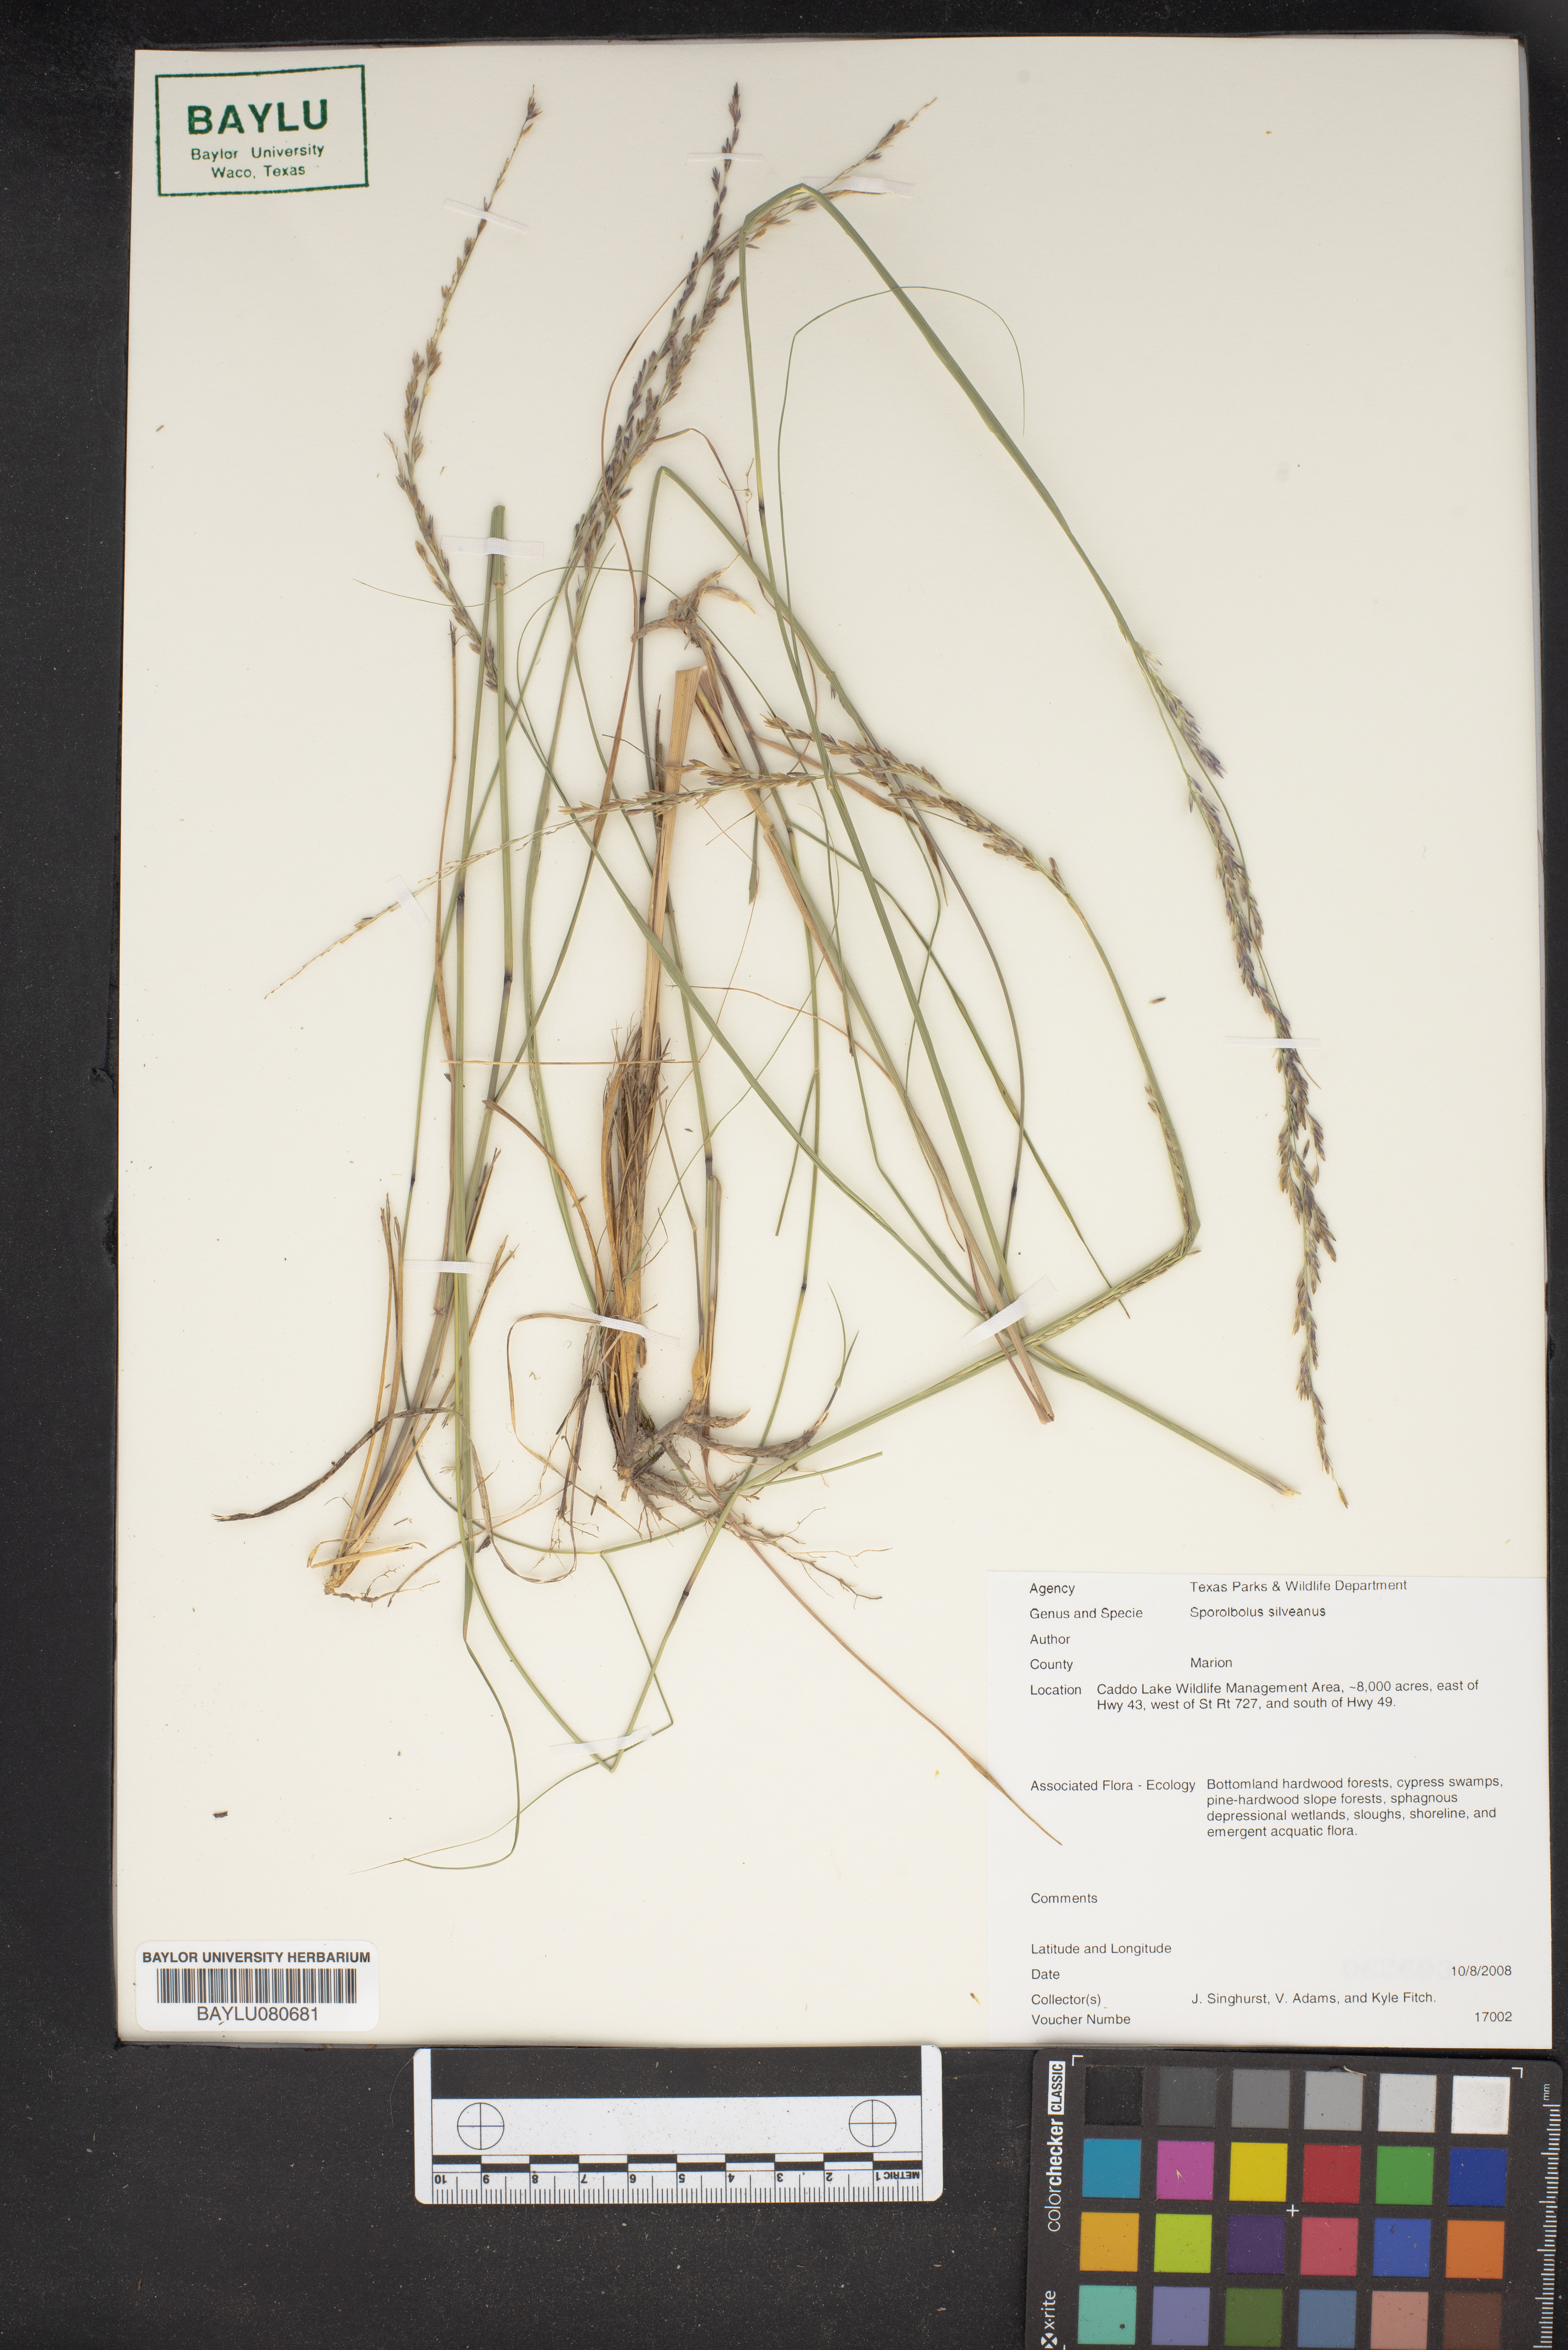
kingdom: Plantae
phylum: Tracheophyta
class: Liliopsida
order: Poales
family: Poaceae
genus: Sporobolus
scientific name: Sporobolus silveanus
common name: Silveus's dropseed
